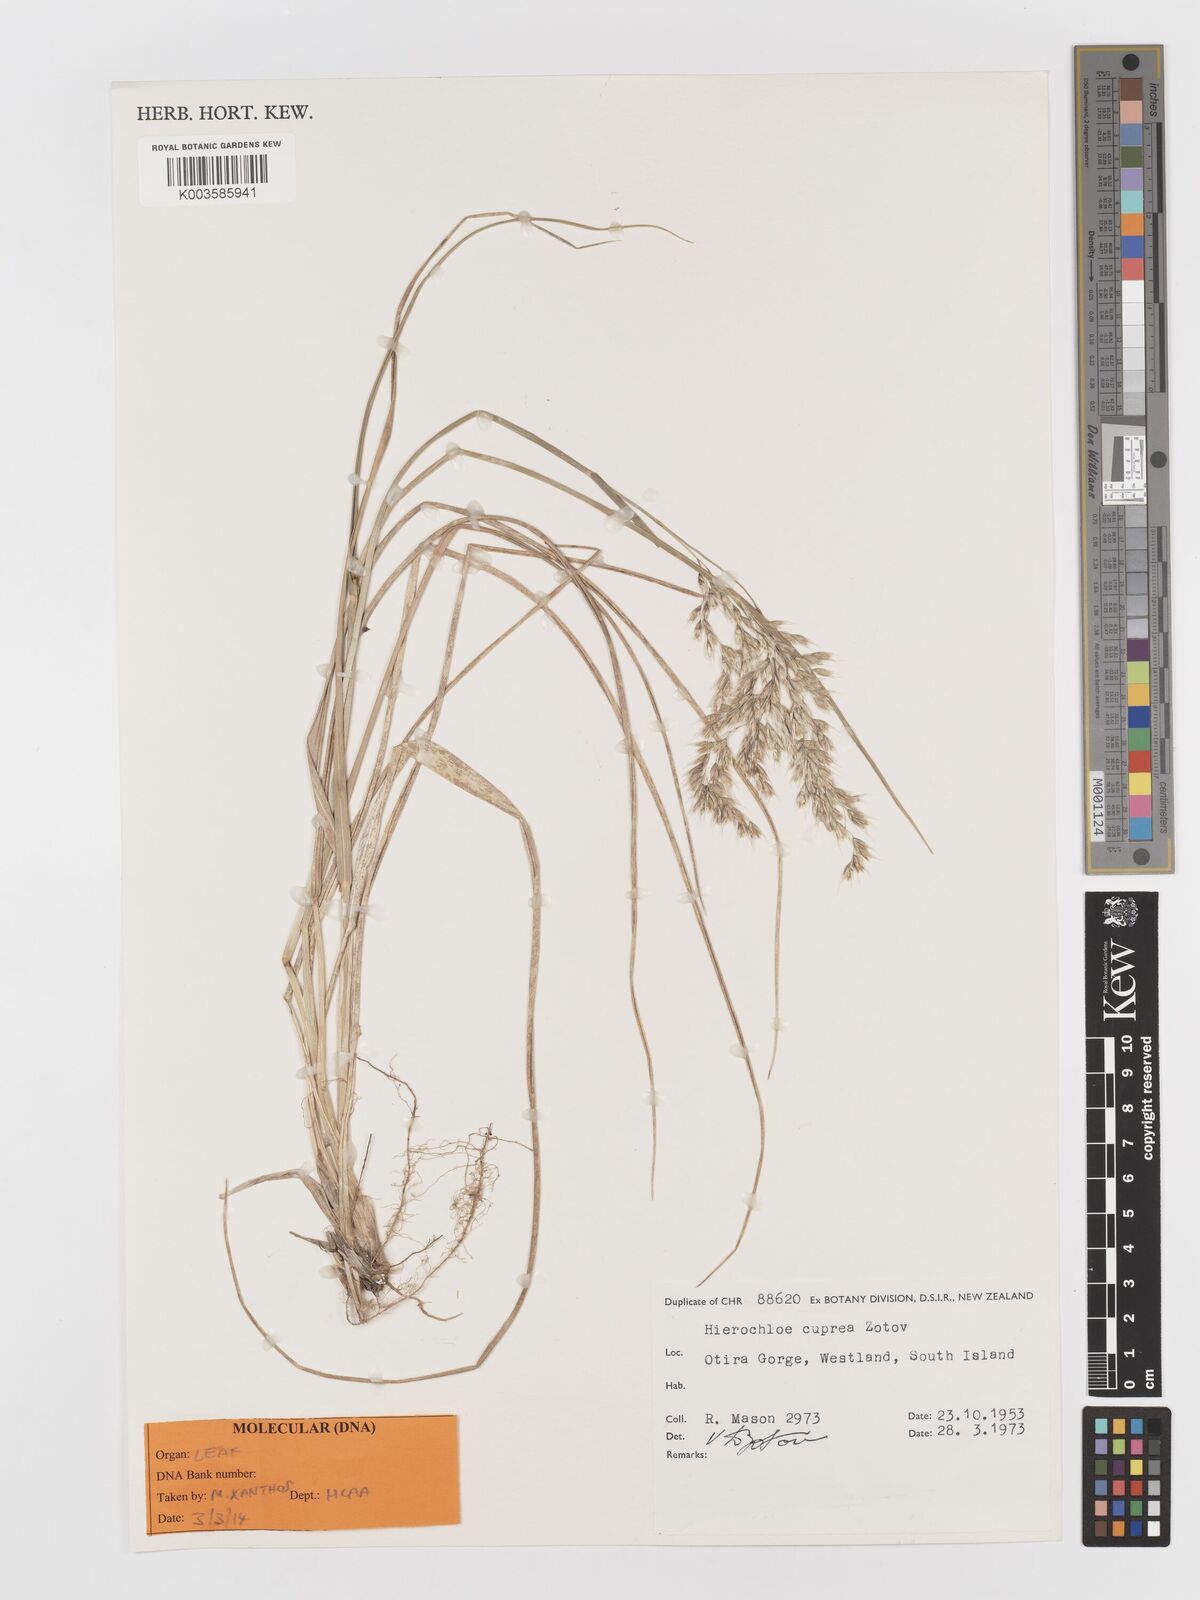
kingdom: Plantae
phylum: Tracheophyta
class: Liliopsida
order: Poales
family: Poaceae
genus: Anthoxanthum
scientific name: Anthoxanthum cupreum
